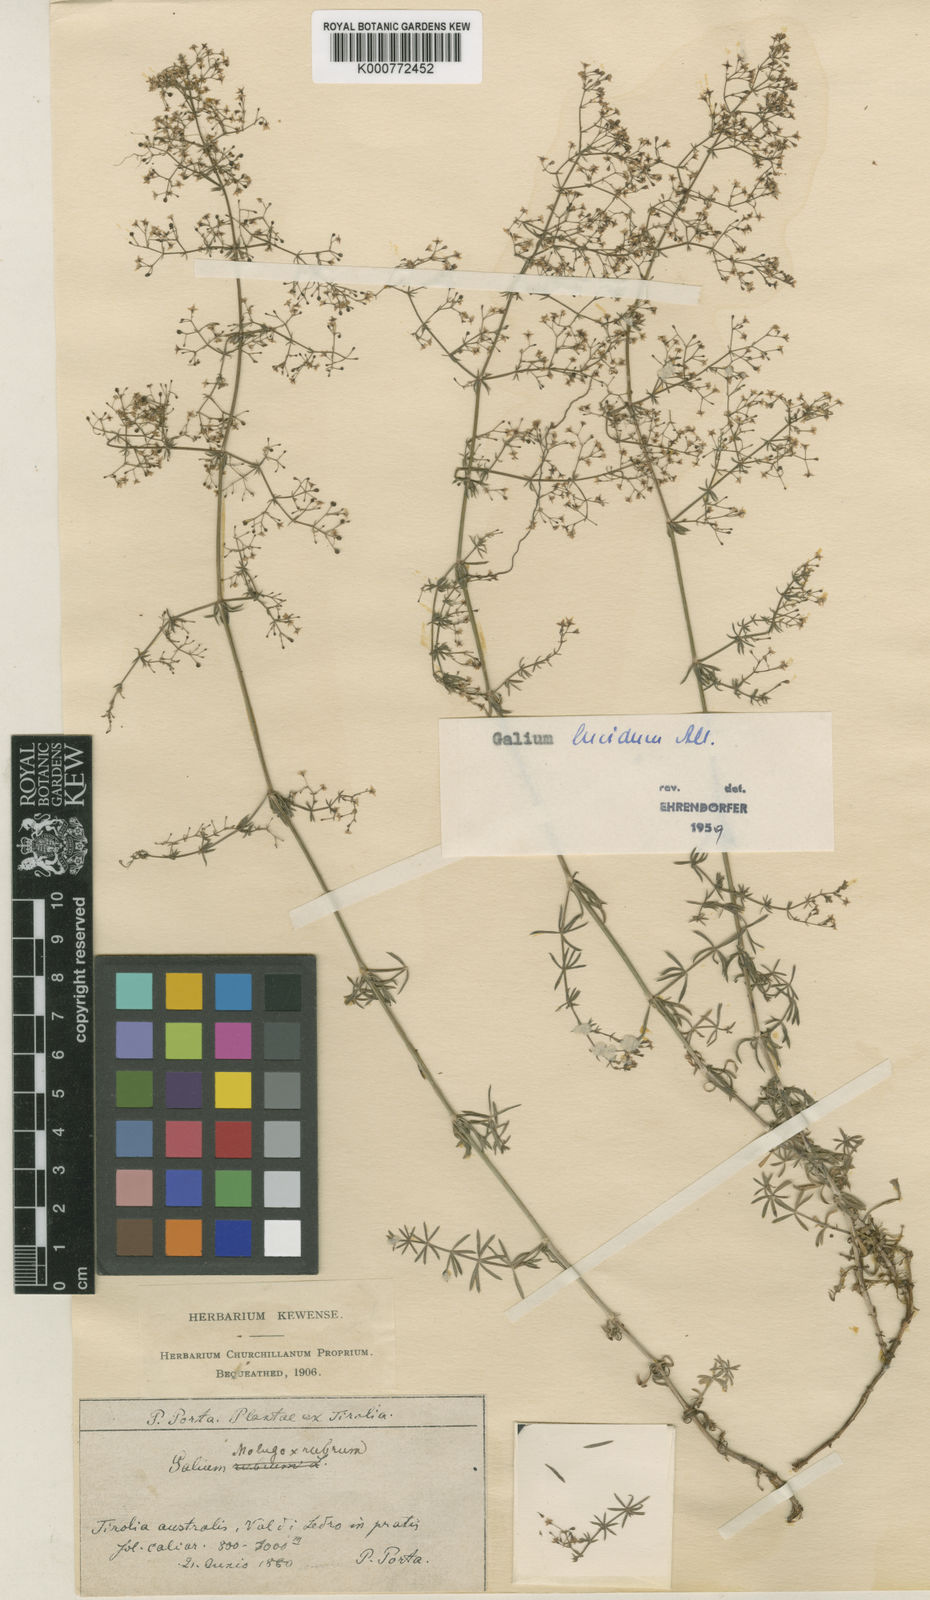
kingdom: Plantae
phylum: Tracheophyta
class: Magnoliopsida
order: Gentianales
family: Rubiaceae
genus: Galium
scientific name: Galium centroniae
